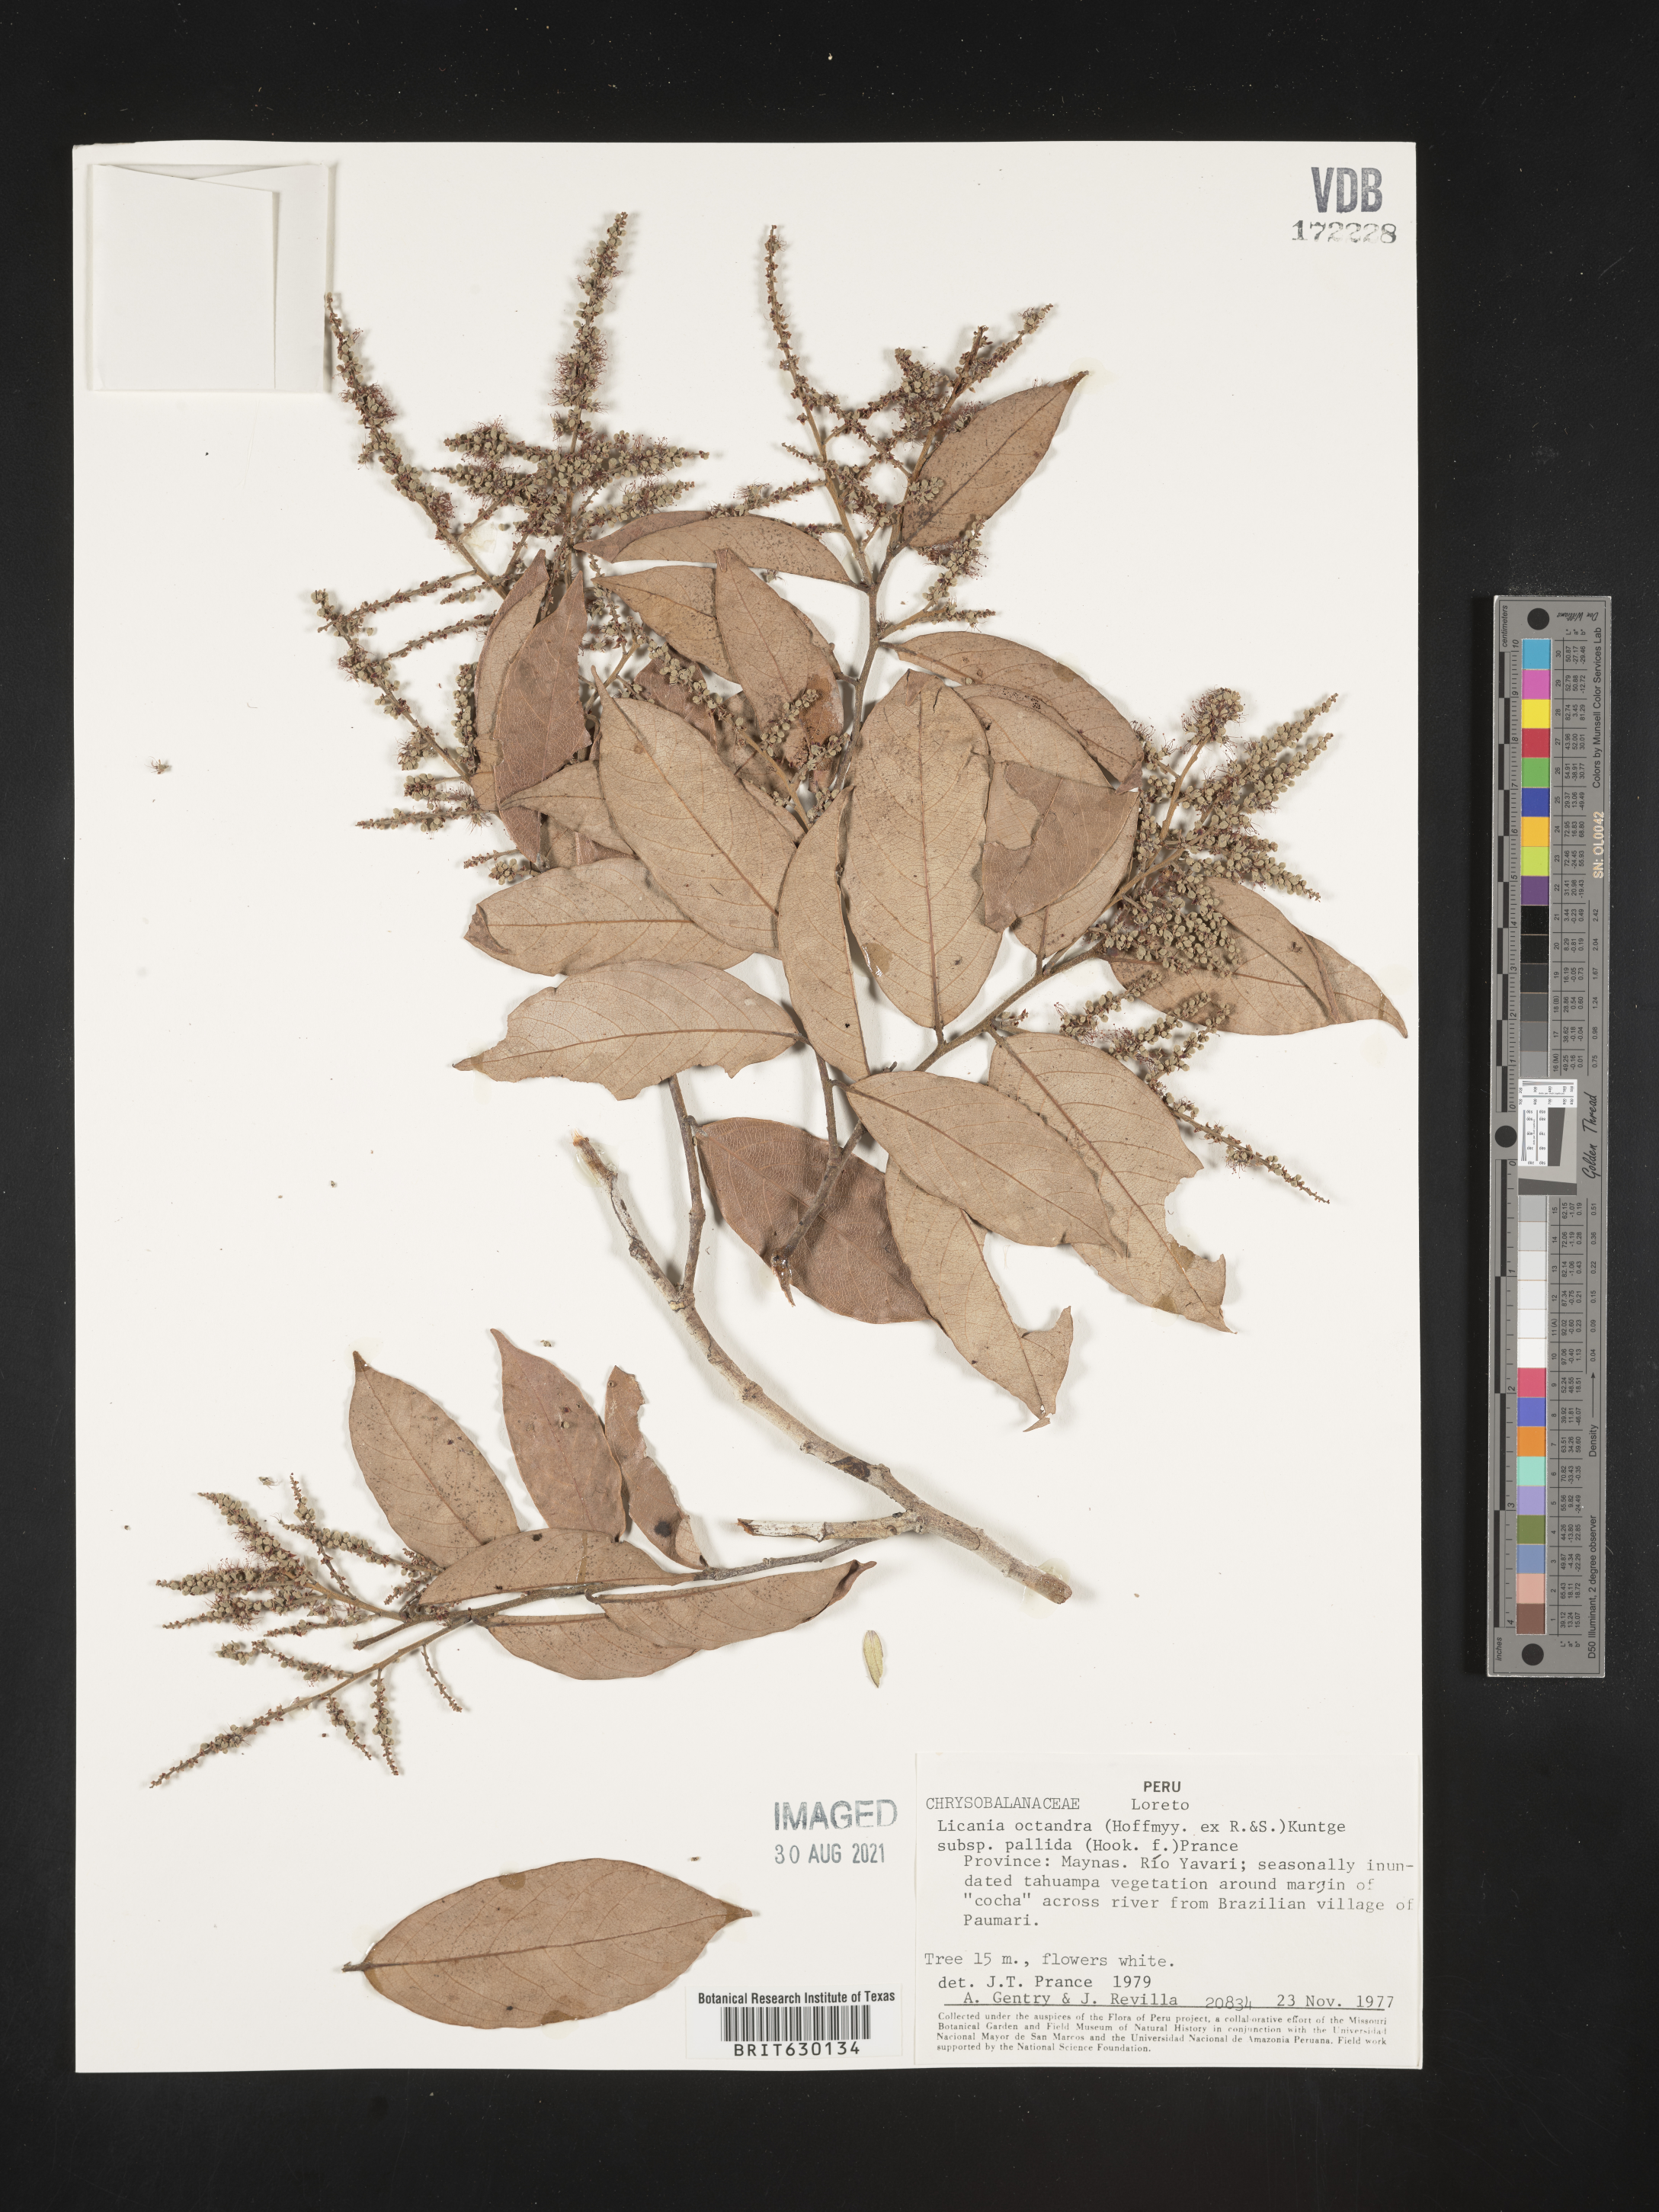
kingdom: Plantae
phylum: Tracheophyta
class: Magnoliopsida
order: Malpighiales
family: Chrysobalanaceae
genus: Leptobalanus
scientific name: Leptobalanus octandrus
